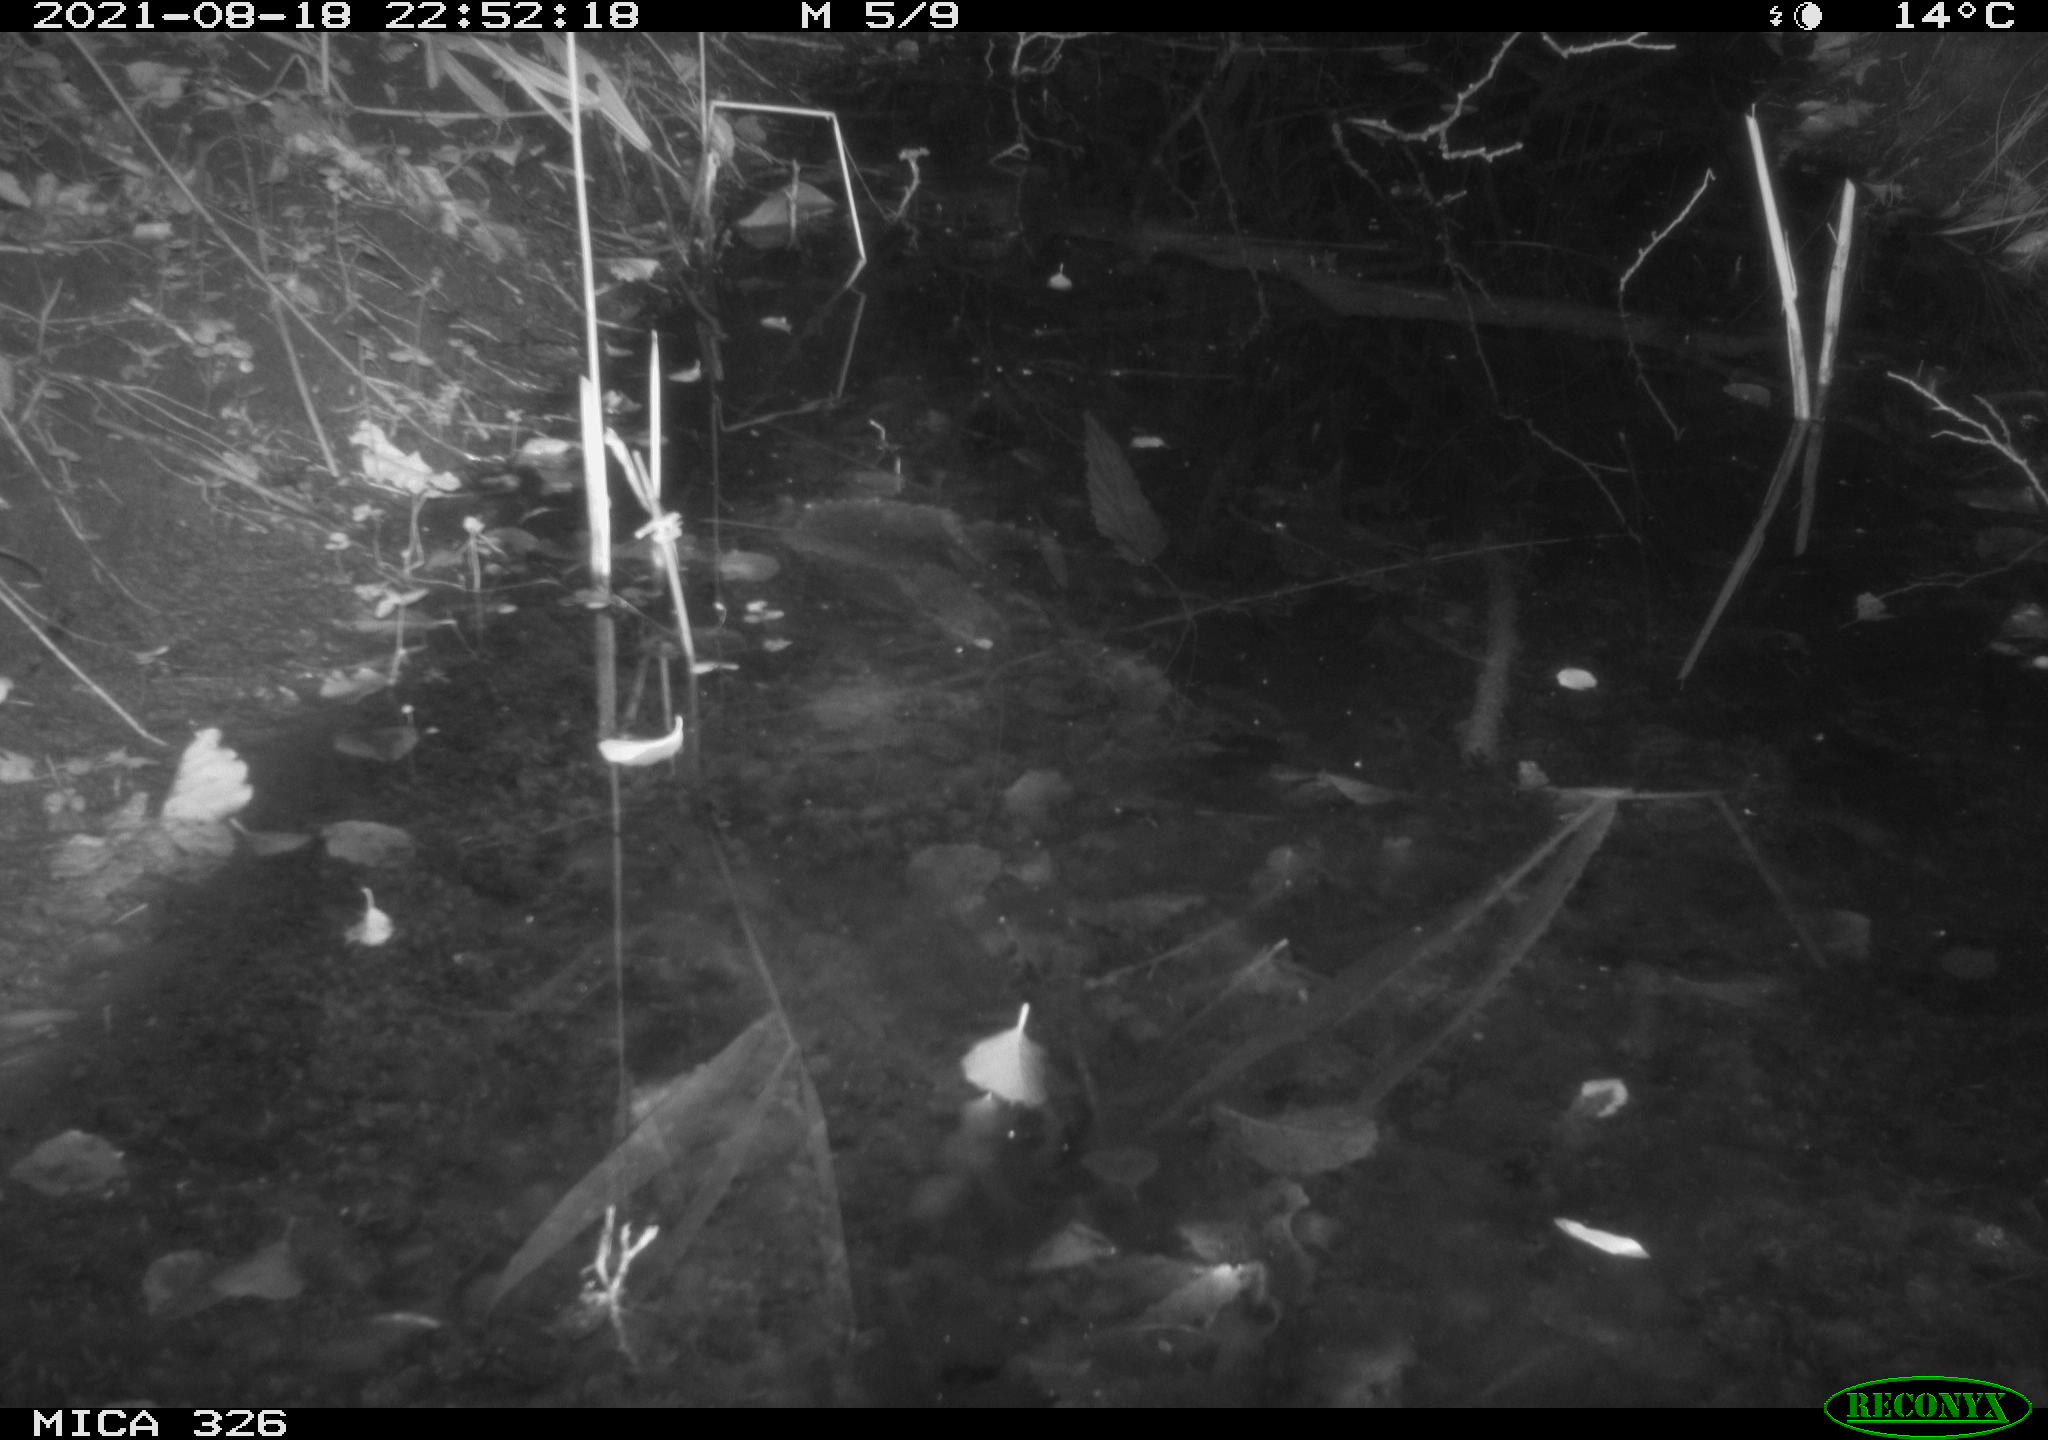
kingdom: Animalia
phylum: Chordata
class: Mammalia
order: Rodentia
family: Muridae
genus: Rattus
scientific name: Rattus norvegicus
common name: Brown rat
